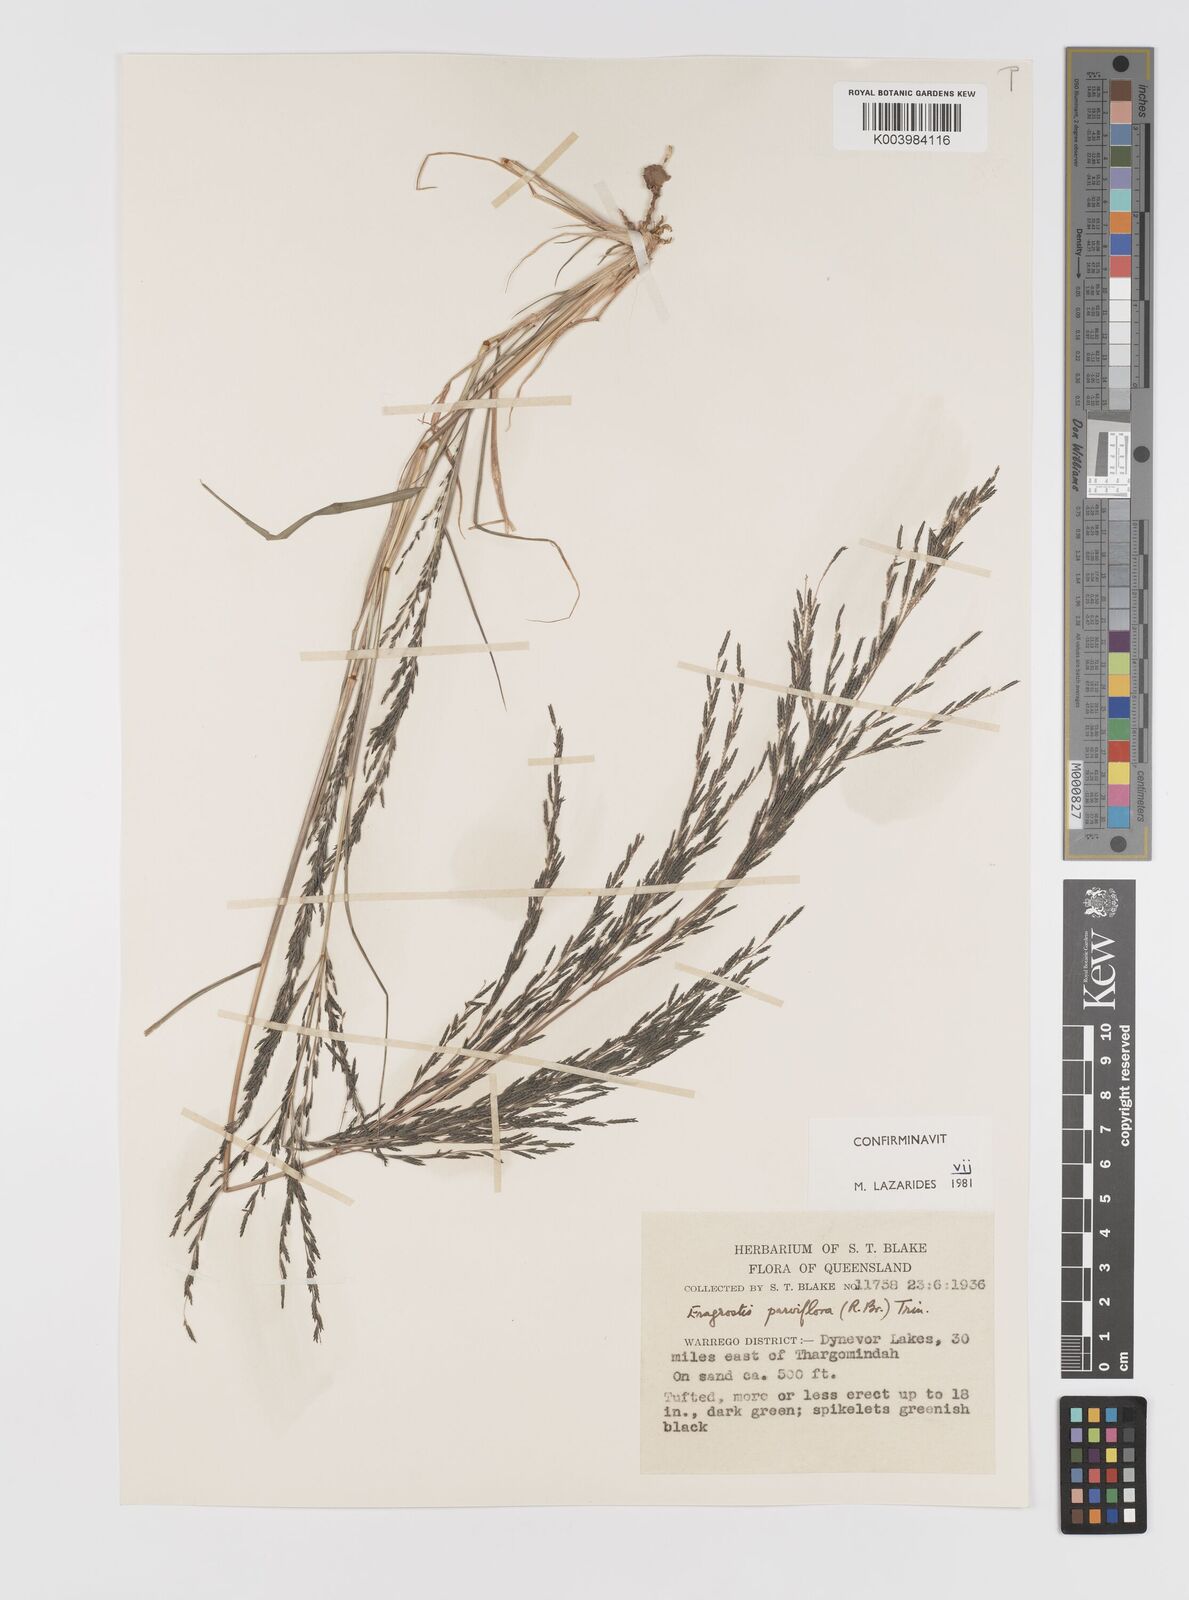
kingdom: Plantae
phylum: Tracheophyta
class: Liliopsida
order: Poales
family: Poaceae
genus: Eragrostis
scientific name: Eragrostis parviflora
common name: Weeping love-grass
